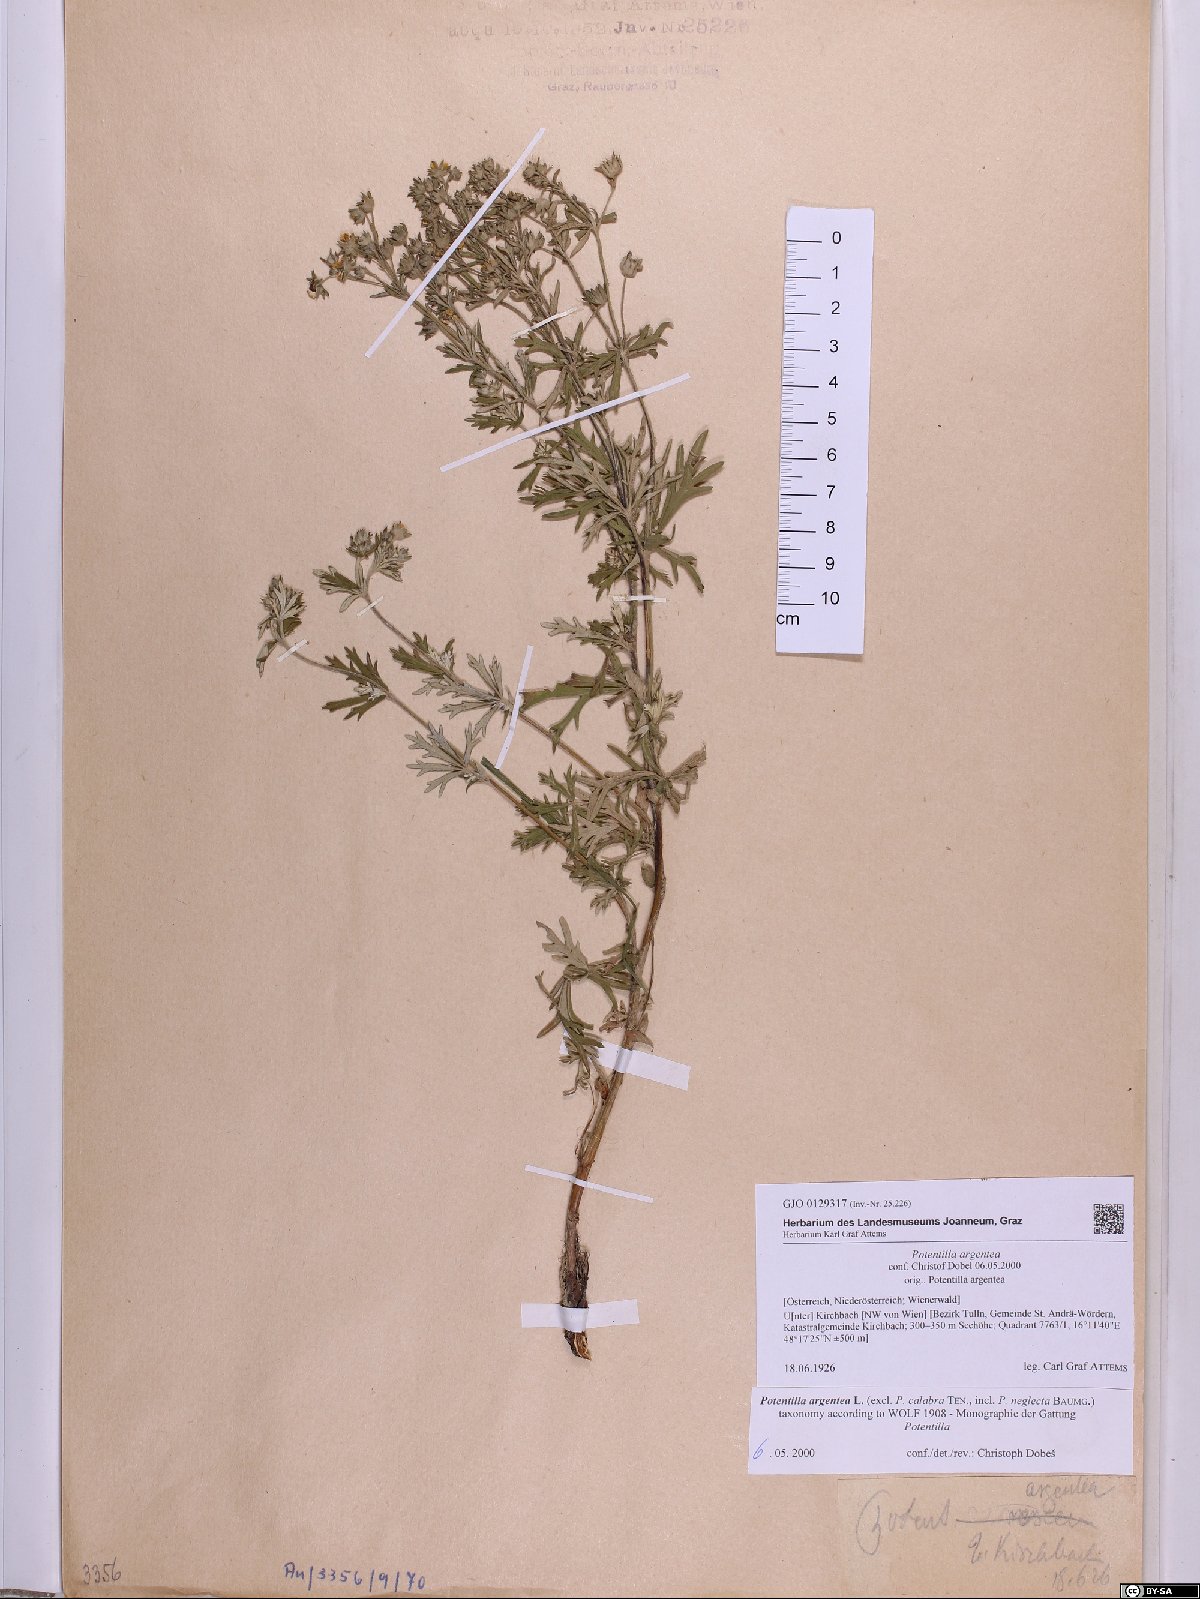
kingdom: Plantae
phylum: Tracheophyta
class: Magnoliopsida
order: Rosales
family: Rosaceae
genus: Potentilla
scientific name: Potentilla argentea
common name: Hoary cinquefoil
